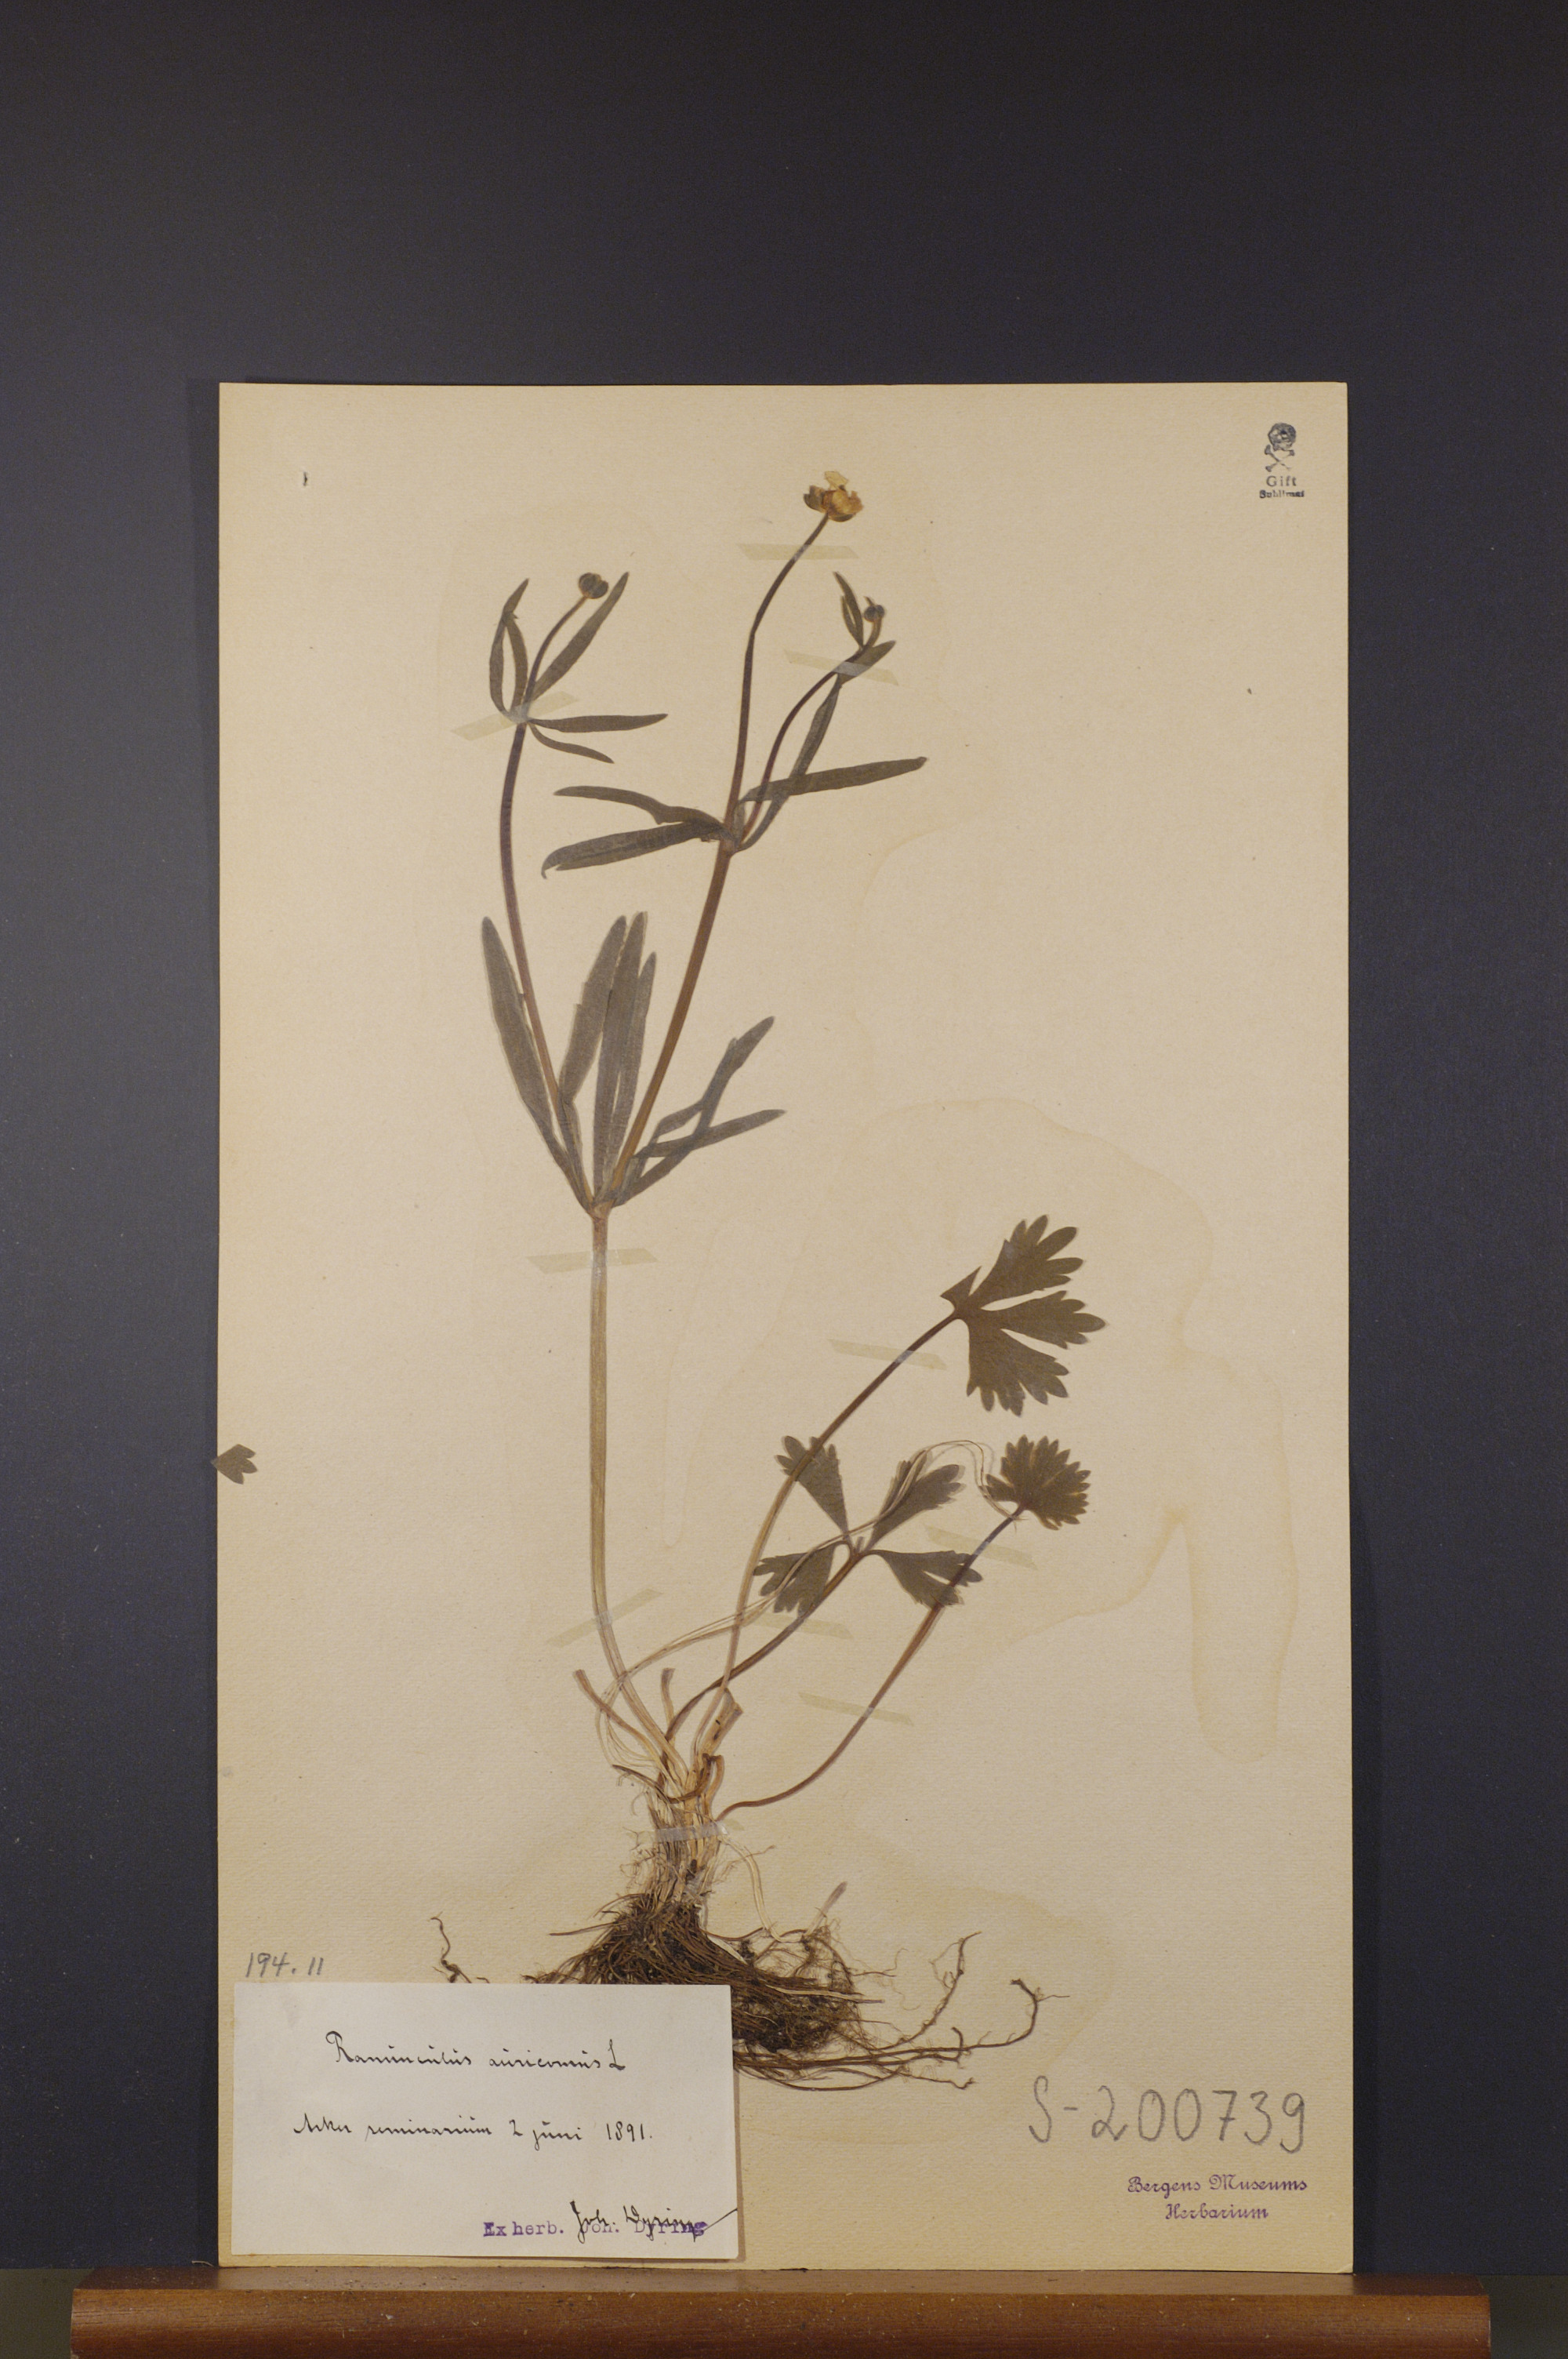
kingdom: Plantae
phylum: Tracheophyta
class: Magnoliopsida
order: Ranunculales
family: Ranunculaceae
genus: Ranunculus
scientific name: Ranunculus auricomus
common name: Goldilocks buttercup
